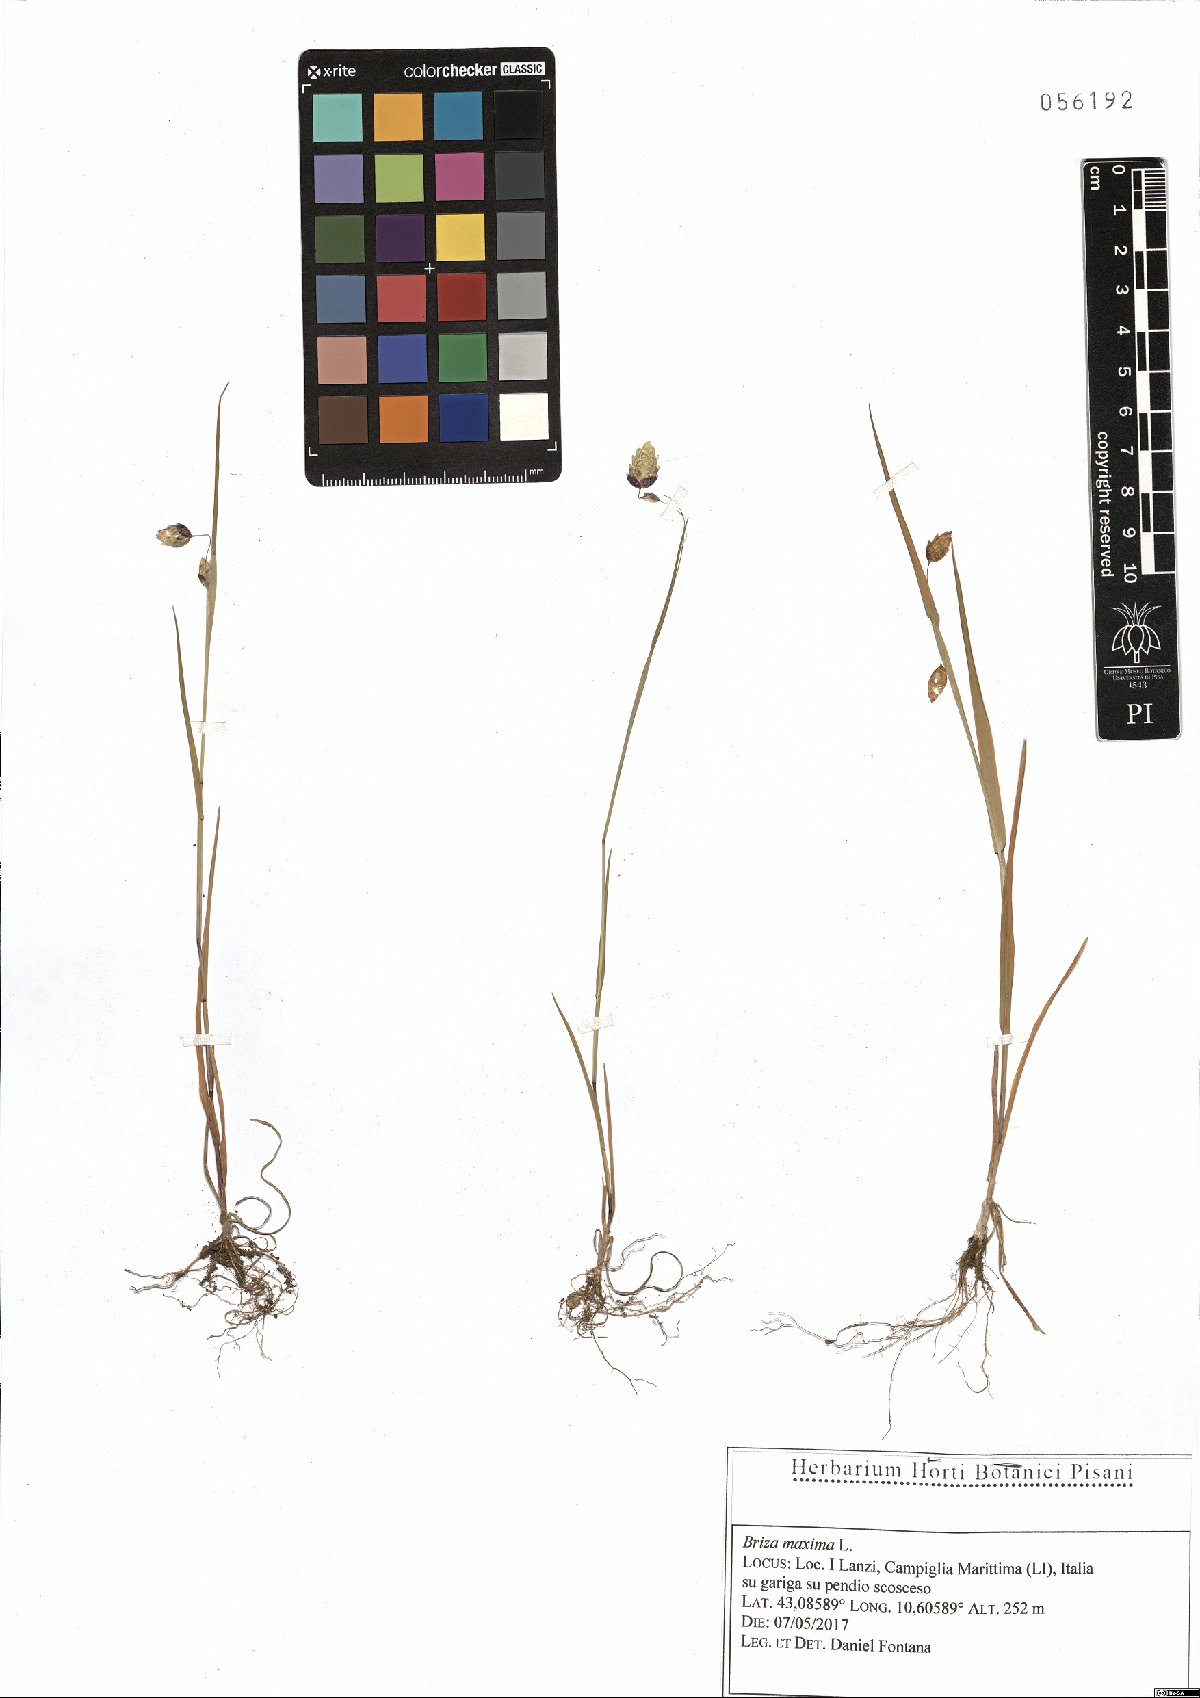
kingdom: Plantae
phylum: Tracheophyta
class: Liliopsida
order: Poales
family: Poaceae
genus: Briza
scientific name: Briza maxima
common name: Big quakinggrass
